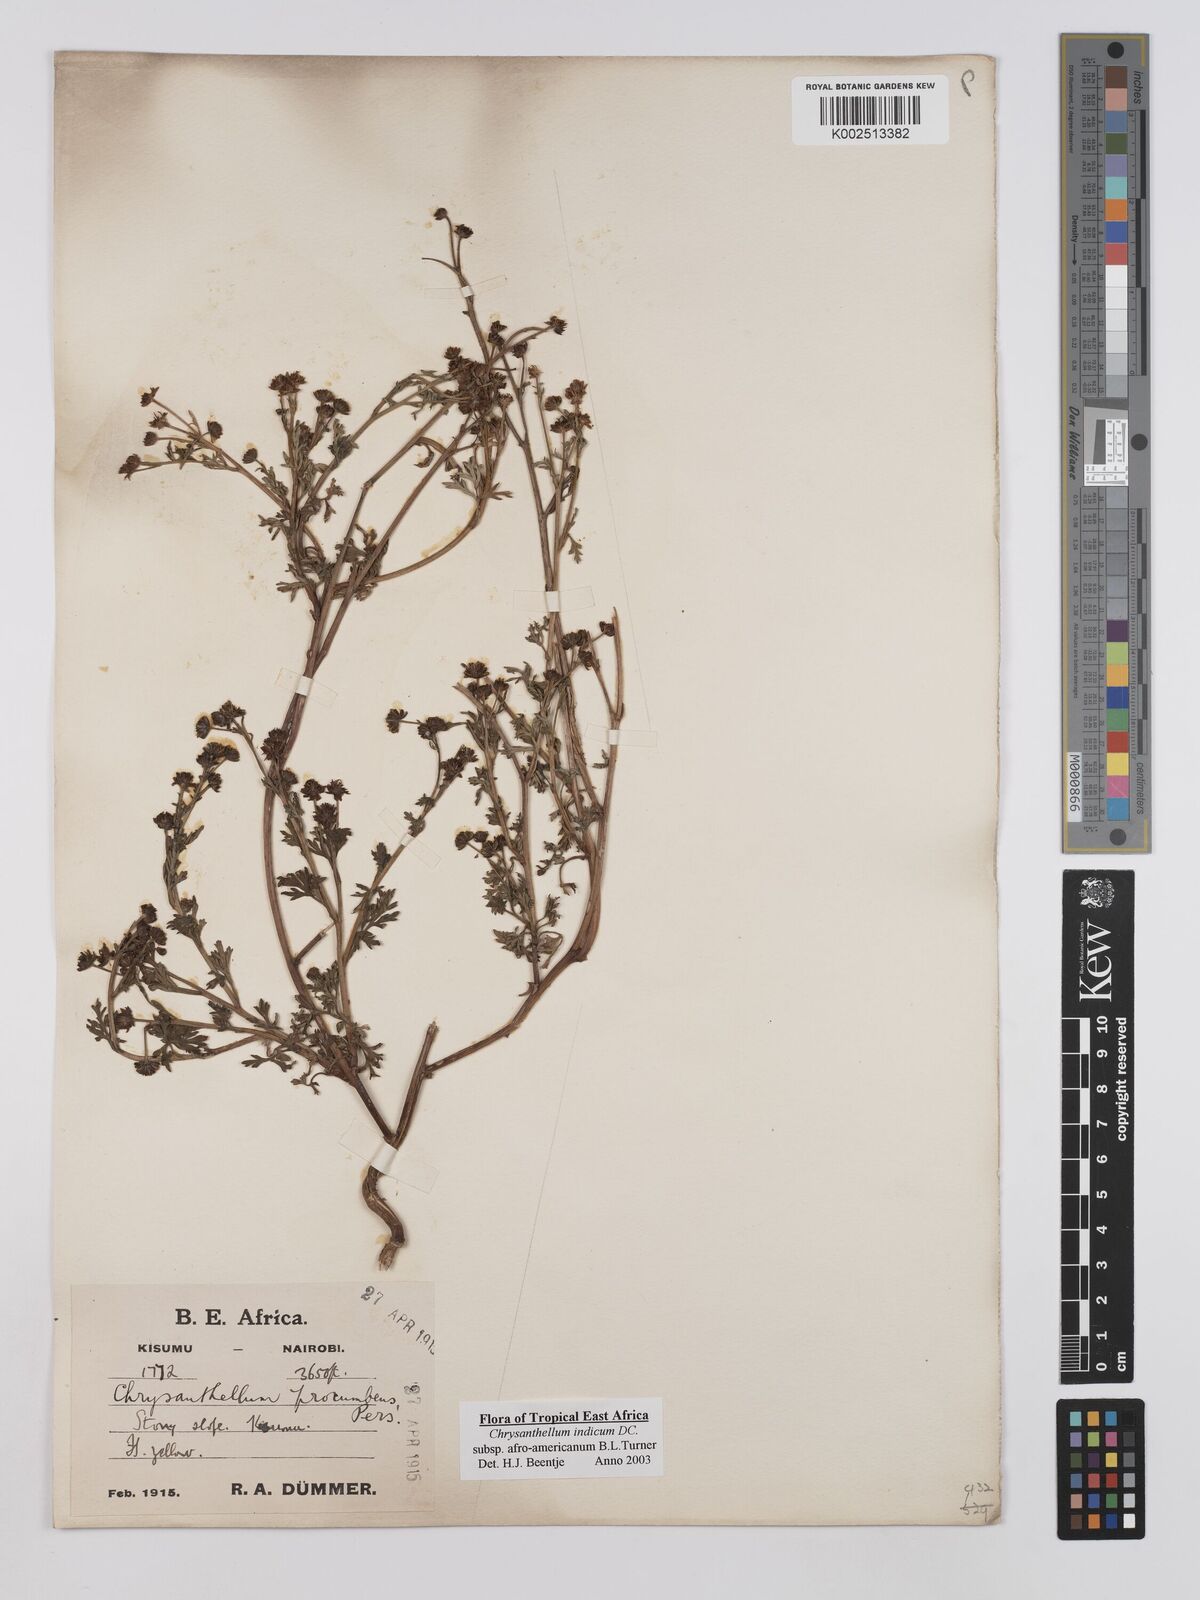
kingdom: Plantae
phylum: Tracheophyta
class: Magnoliopsida
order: Asterales
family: Asteraceae
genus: Chrysanthellum
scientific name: Chrysanthellum indicum
